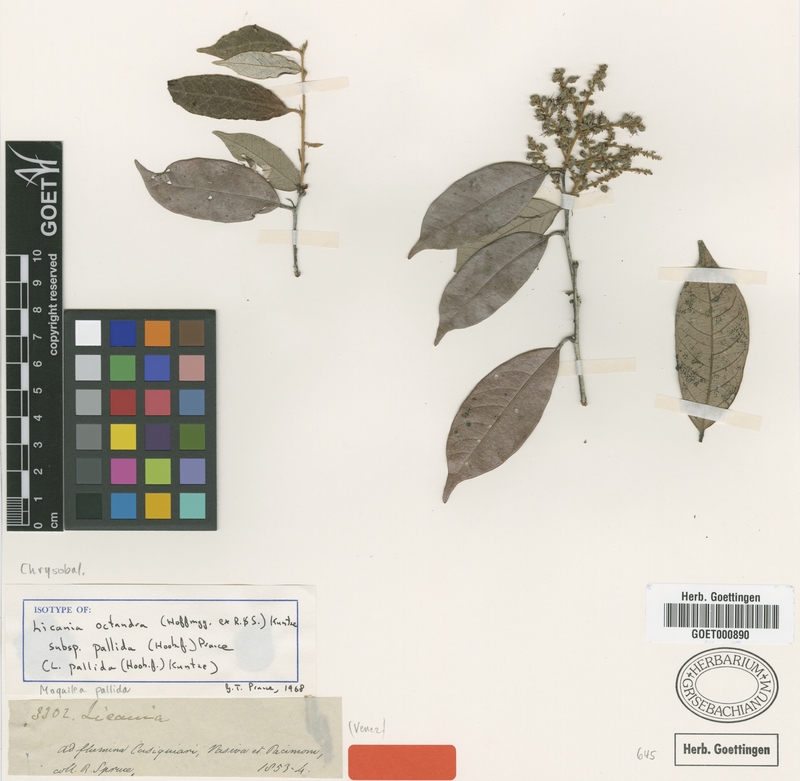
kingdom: Plantae
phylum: Tracheophyta
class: Magnoliopsida
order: Malpighiales
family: Chrysobalanaceae
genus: Leptobalanus
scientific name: Leptobalanus octandrus
